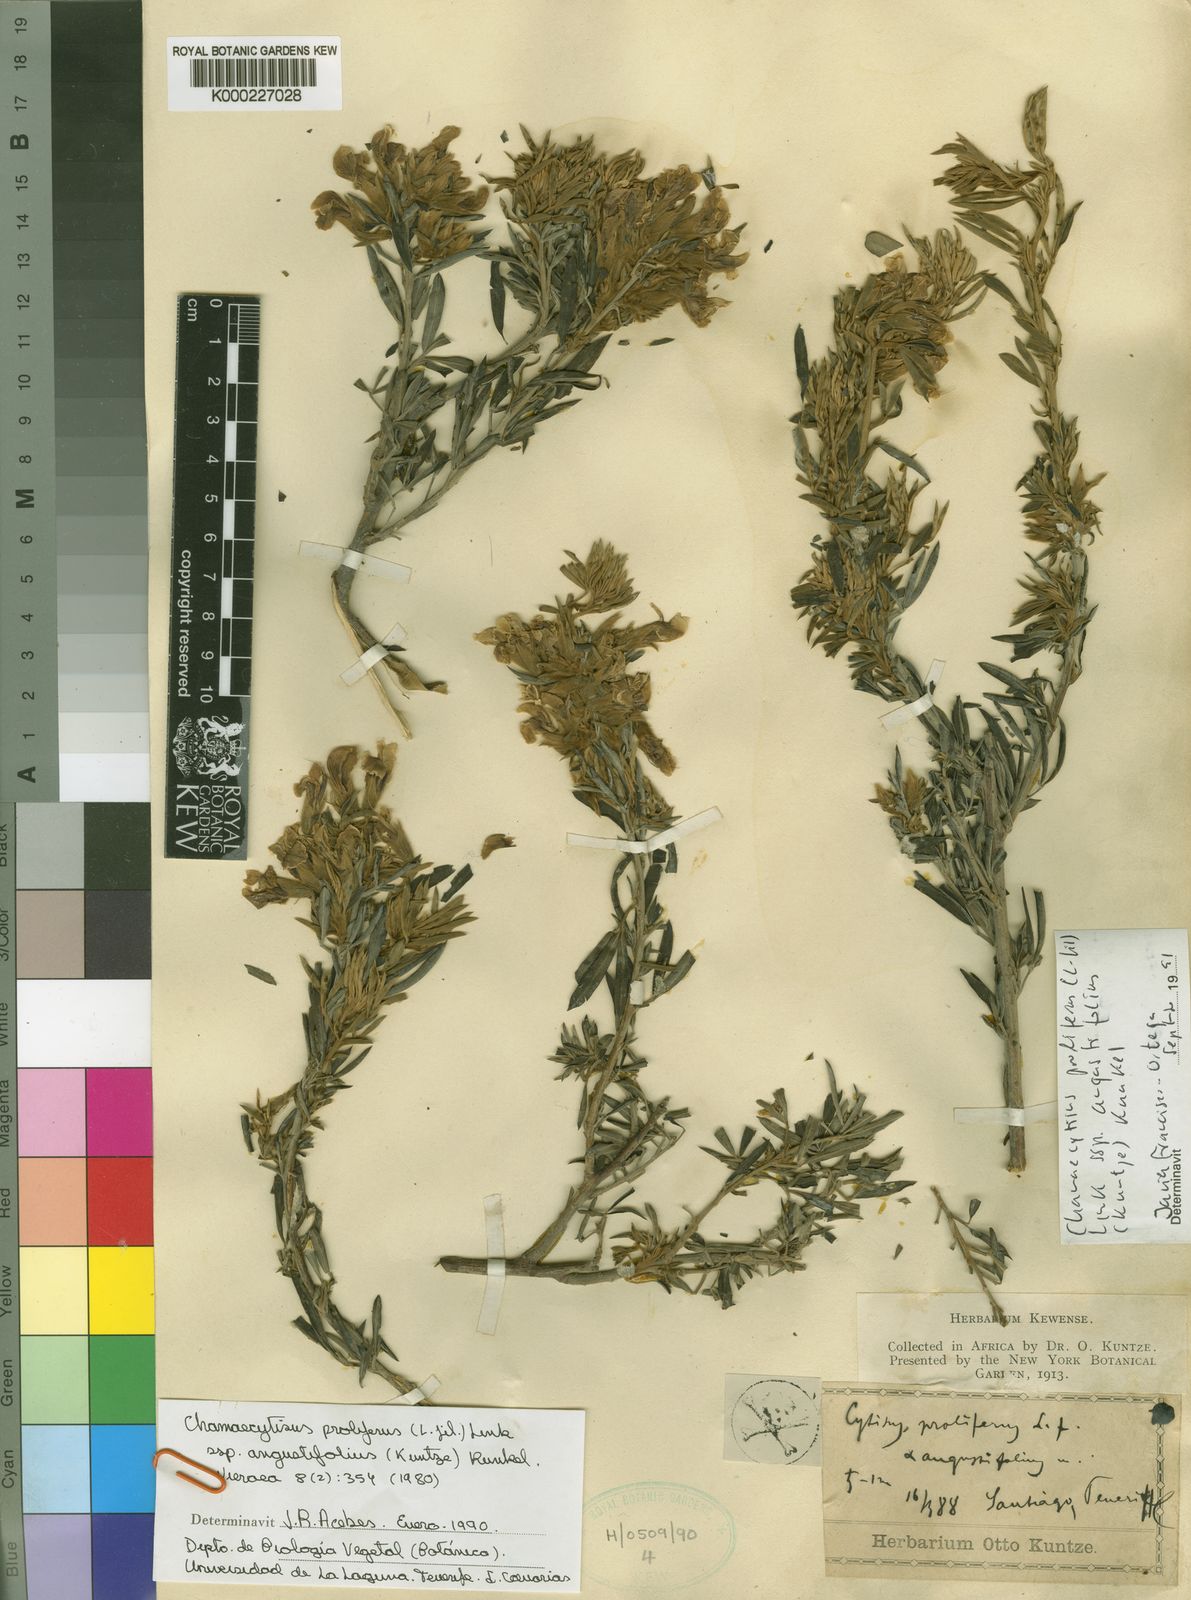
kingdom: Plantae
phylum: Tracheophyta
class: Magnoliopsida
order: Fabales
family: Fabaceae
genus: Cytisus
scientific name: Cytisus
